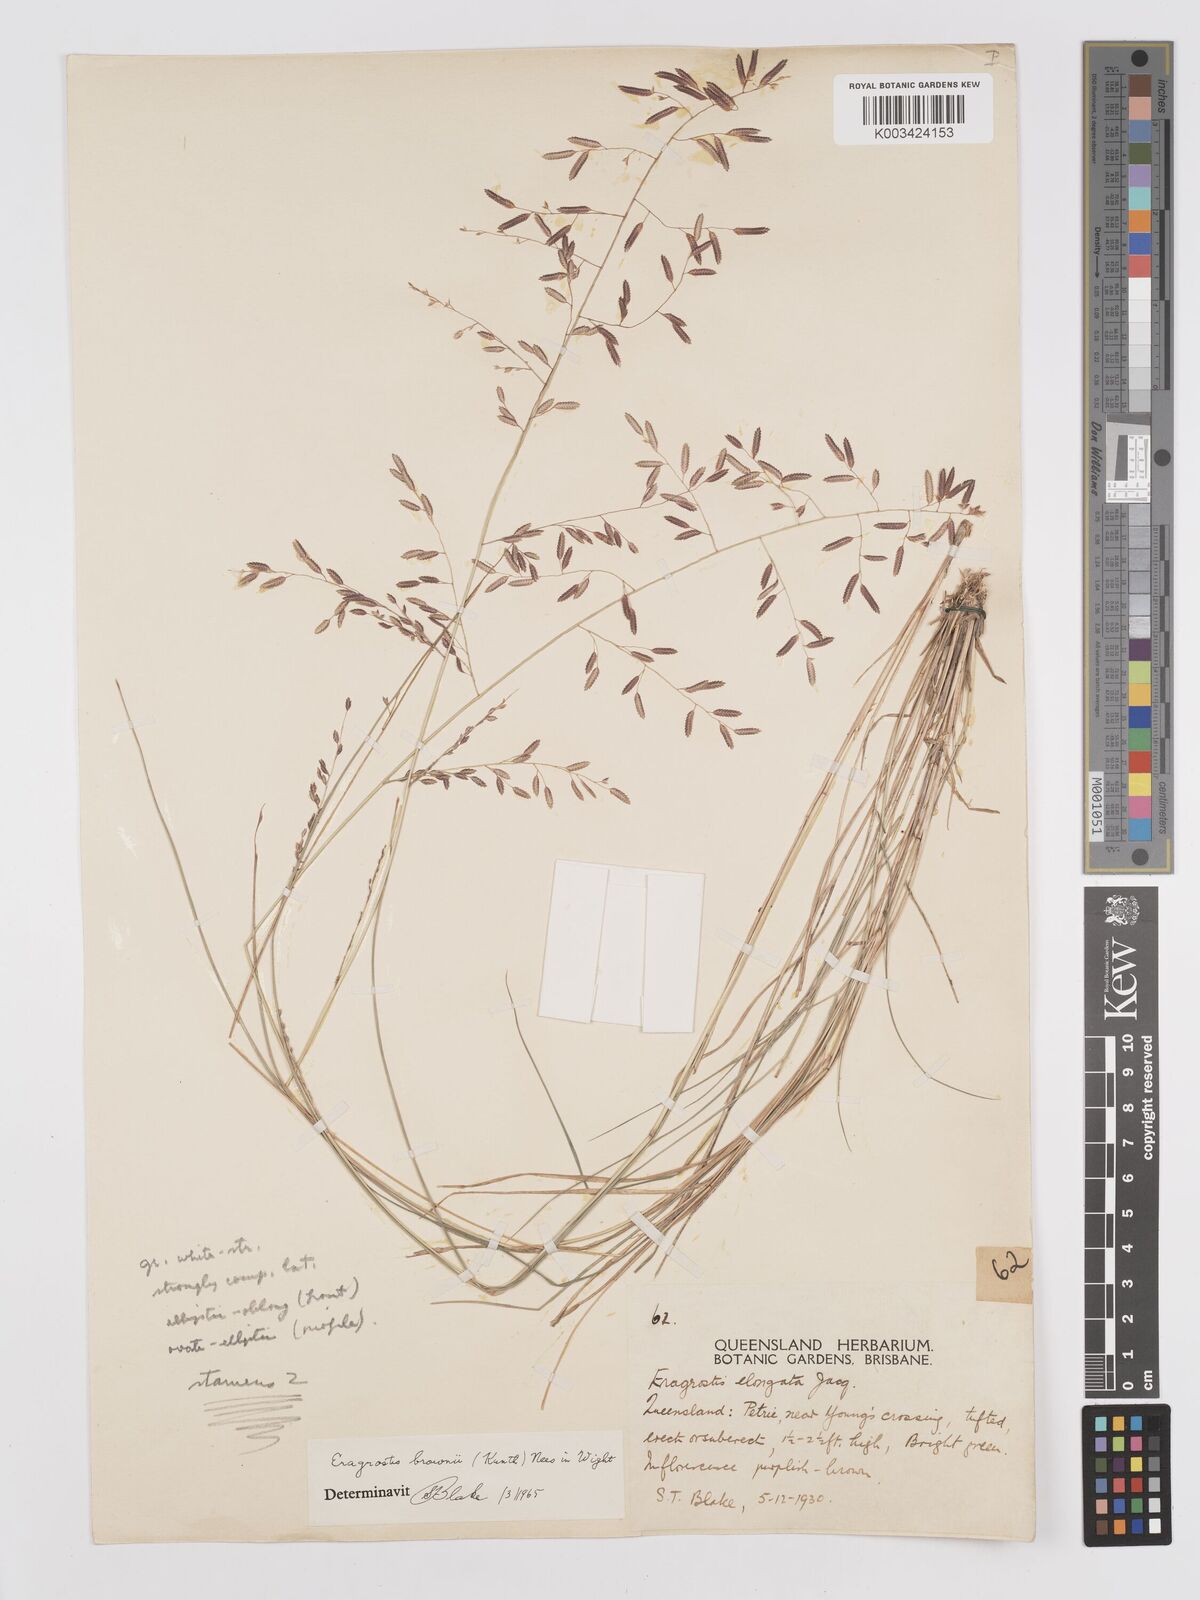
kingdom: Plantae
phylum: Tracheophyta
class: Liliopsida
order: Poales
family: Poaceae
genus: Eragrostis
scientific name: Eragrostis brownii
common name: Lovegrass
